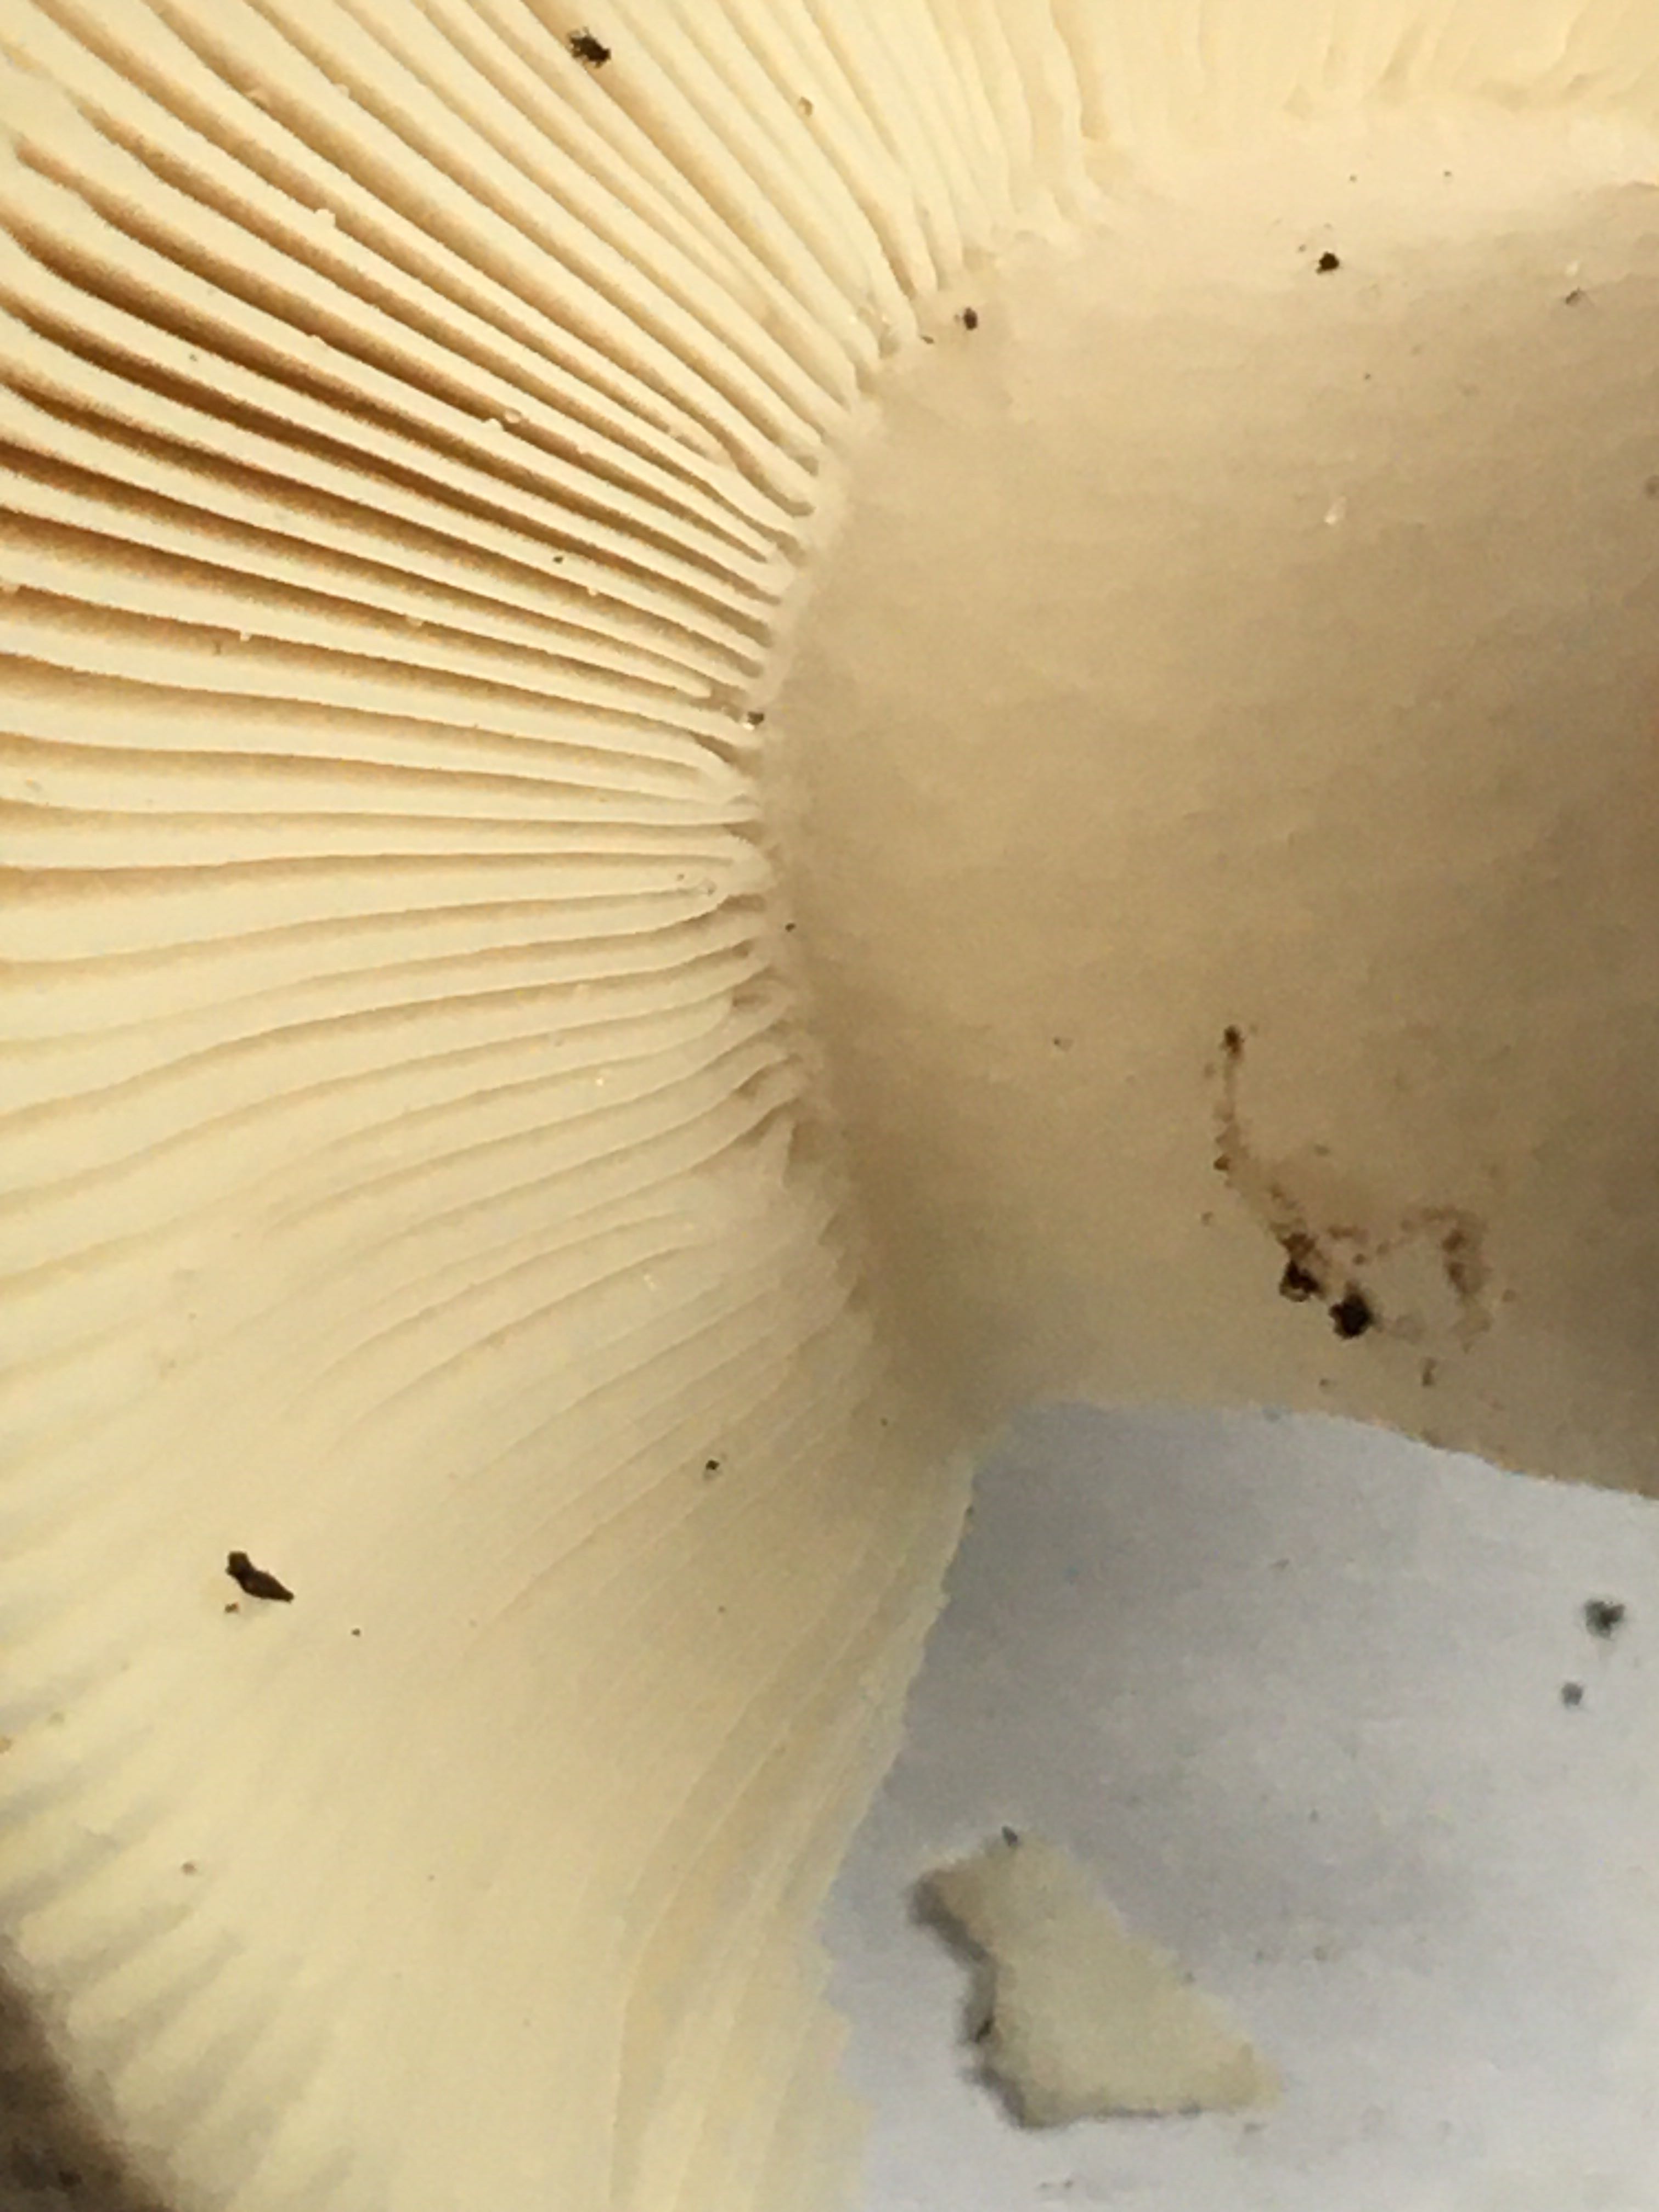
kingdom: Fungi
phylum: Basidiomycota
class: Agaricomycetes
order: Russulales
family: Russulaceae
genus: Russula
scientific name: Russula
